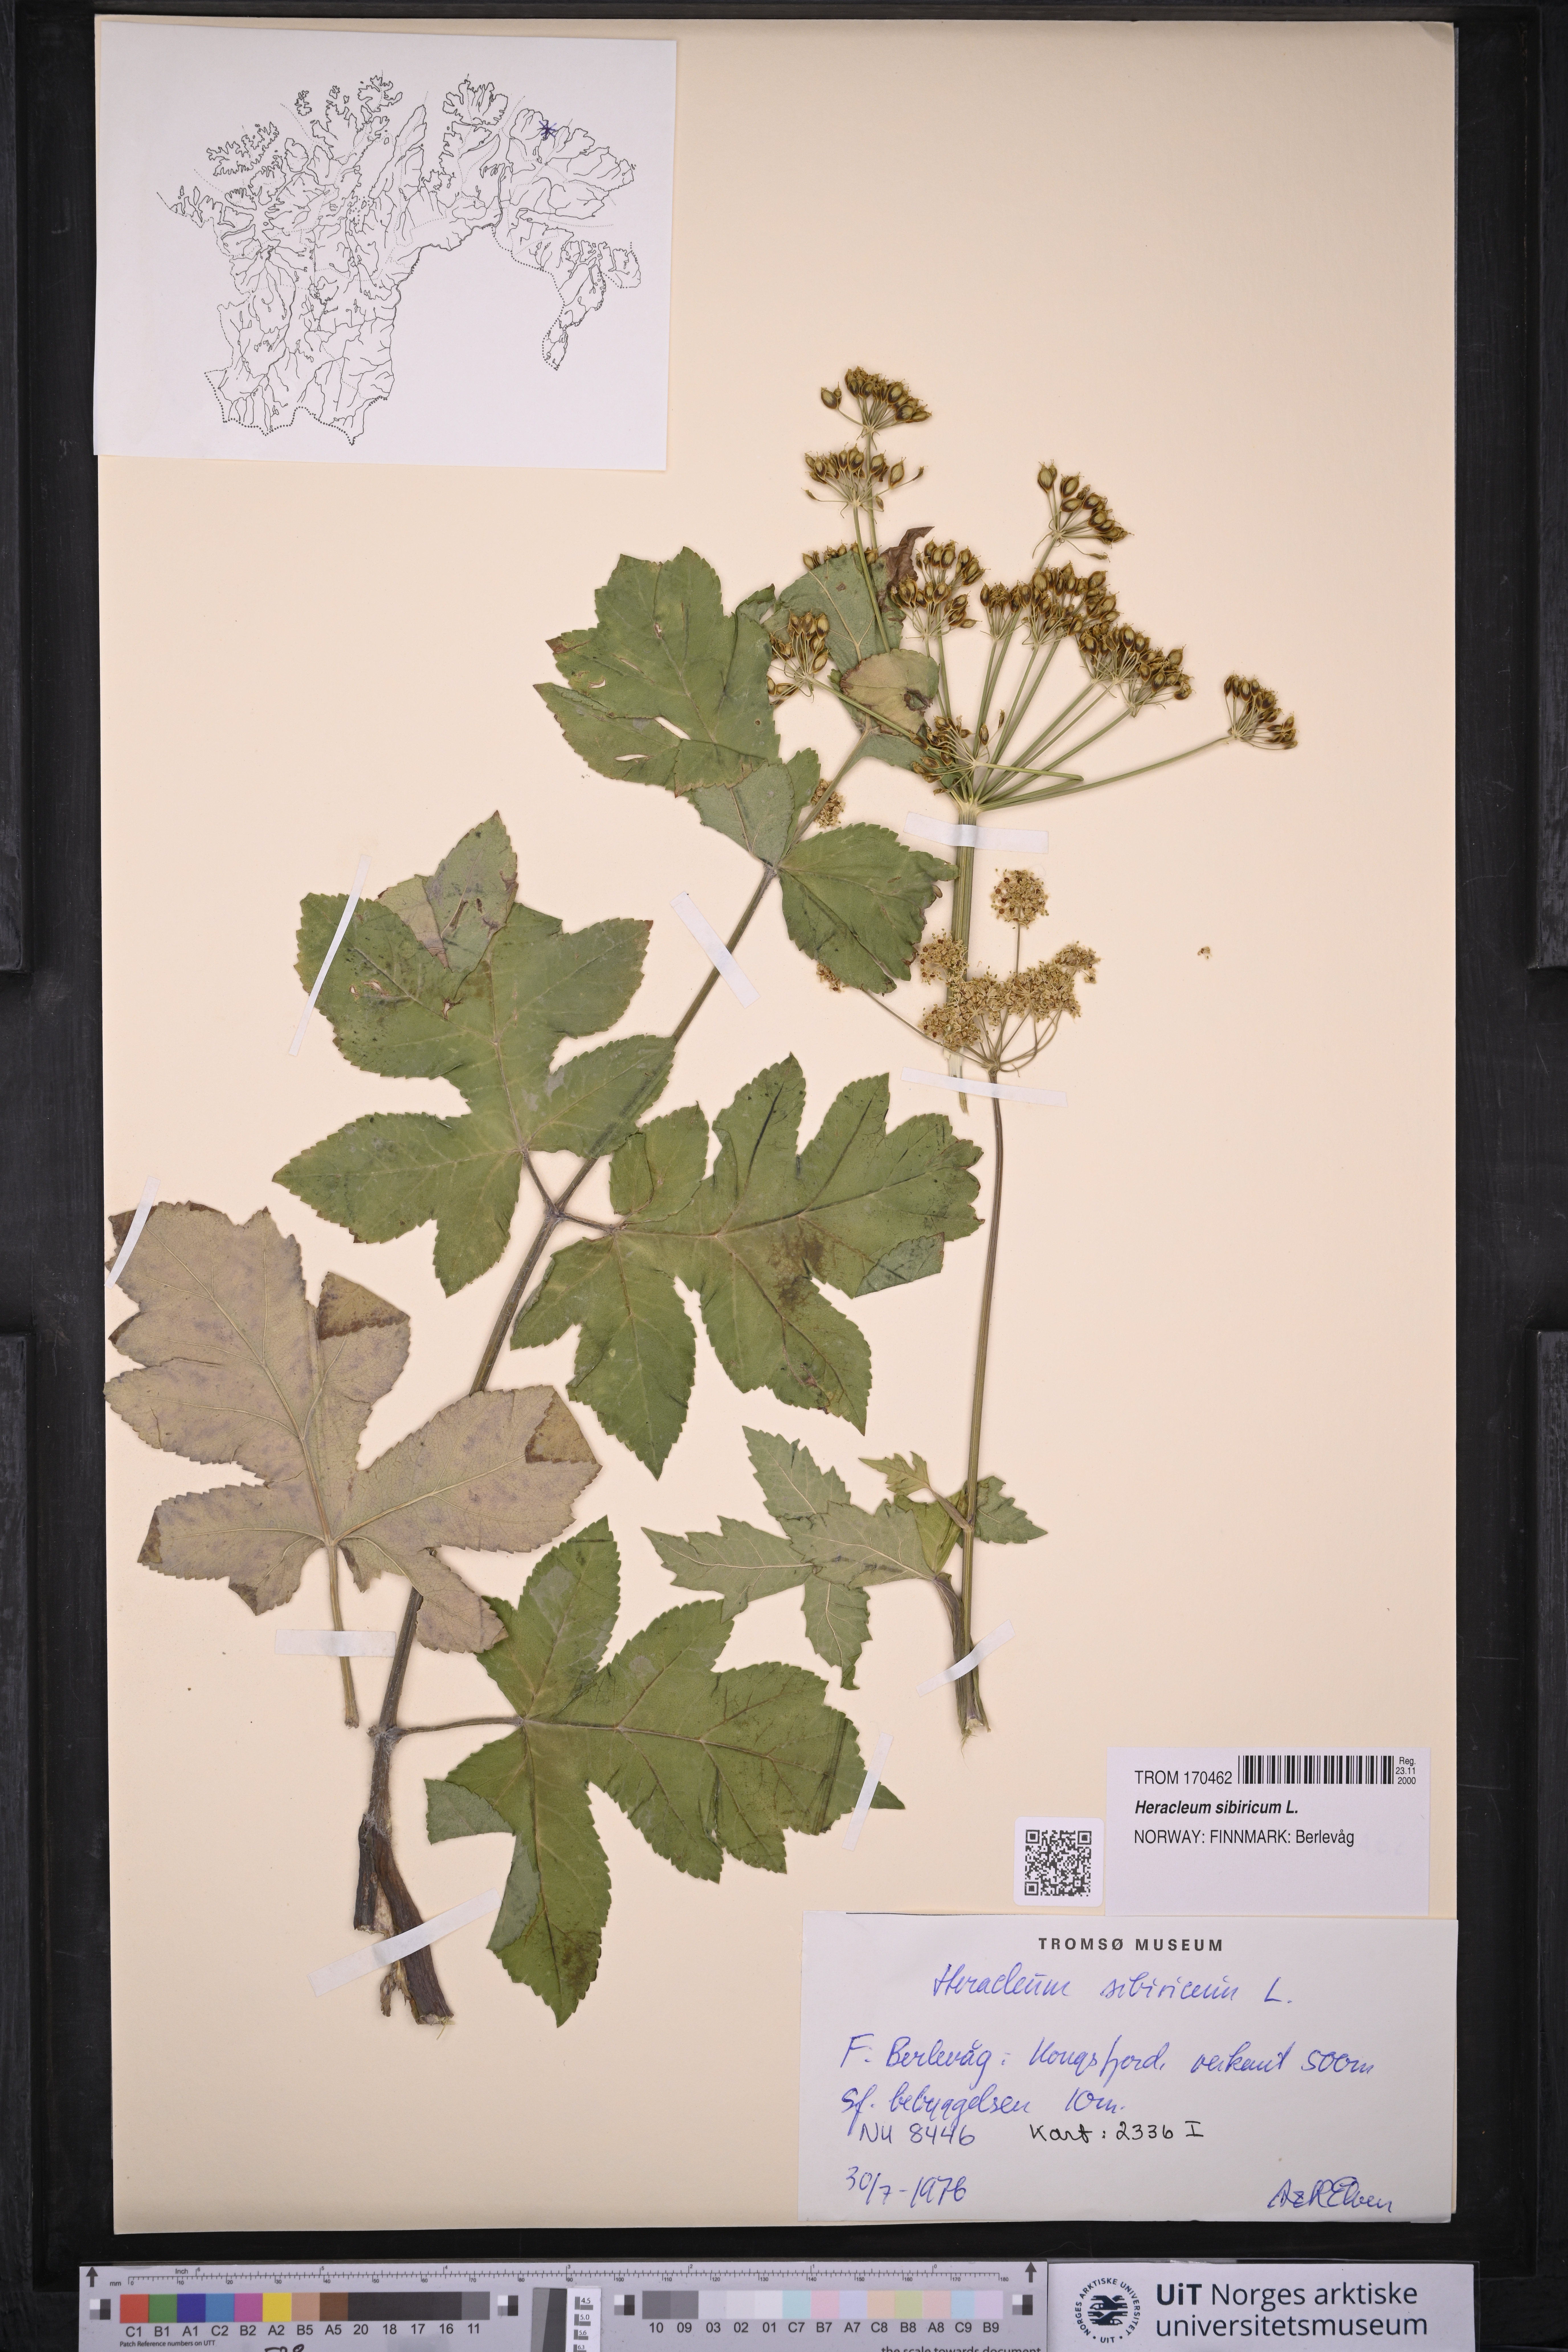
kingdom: Plantae
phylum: Tracheophyta
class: Magnoliopsida
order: Apiales
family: Apiaceae
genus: Heracleum
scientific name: Heracleum sphondylium
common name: Hogweed
